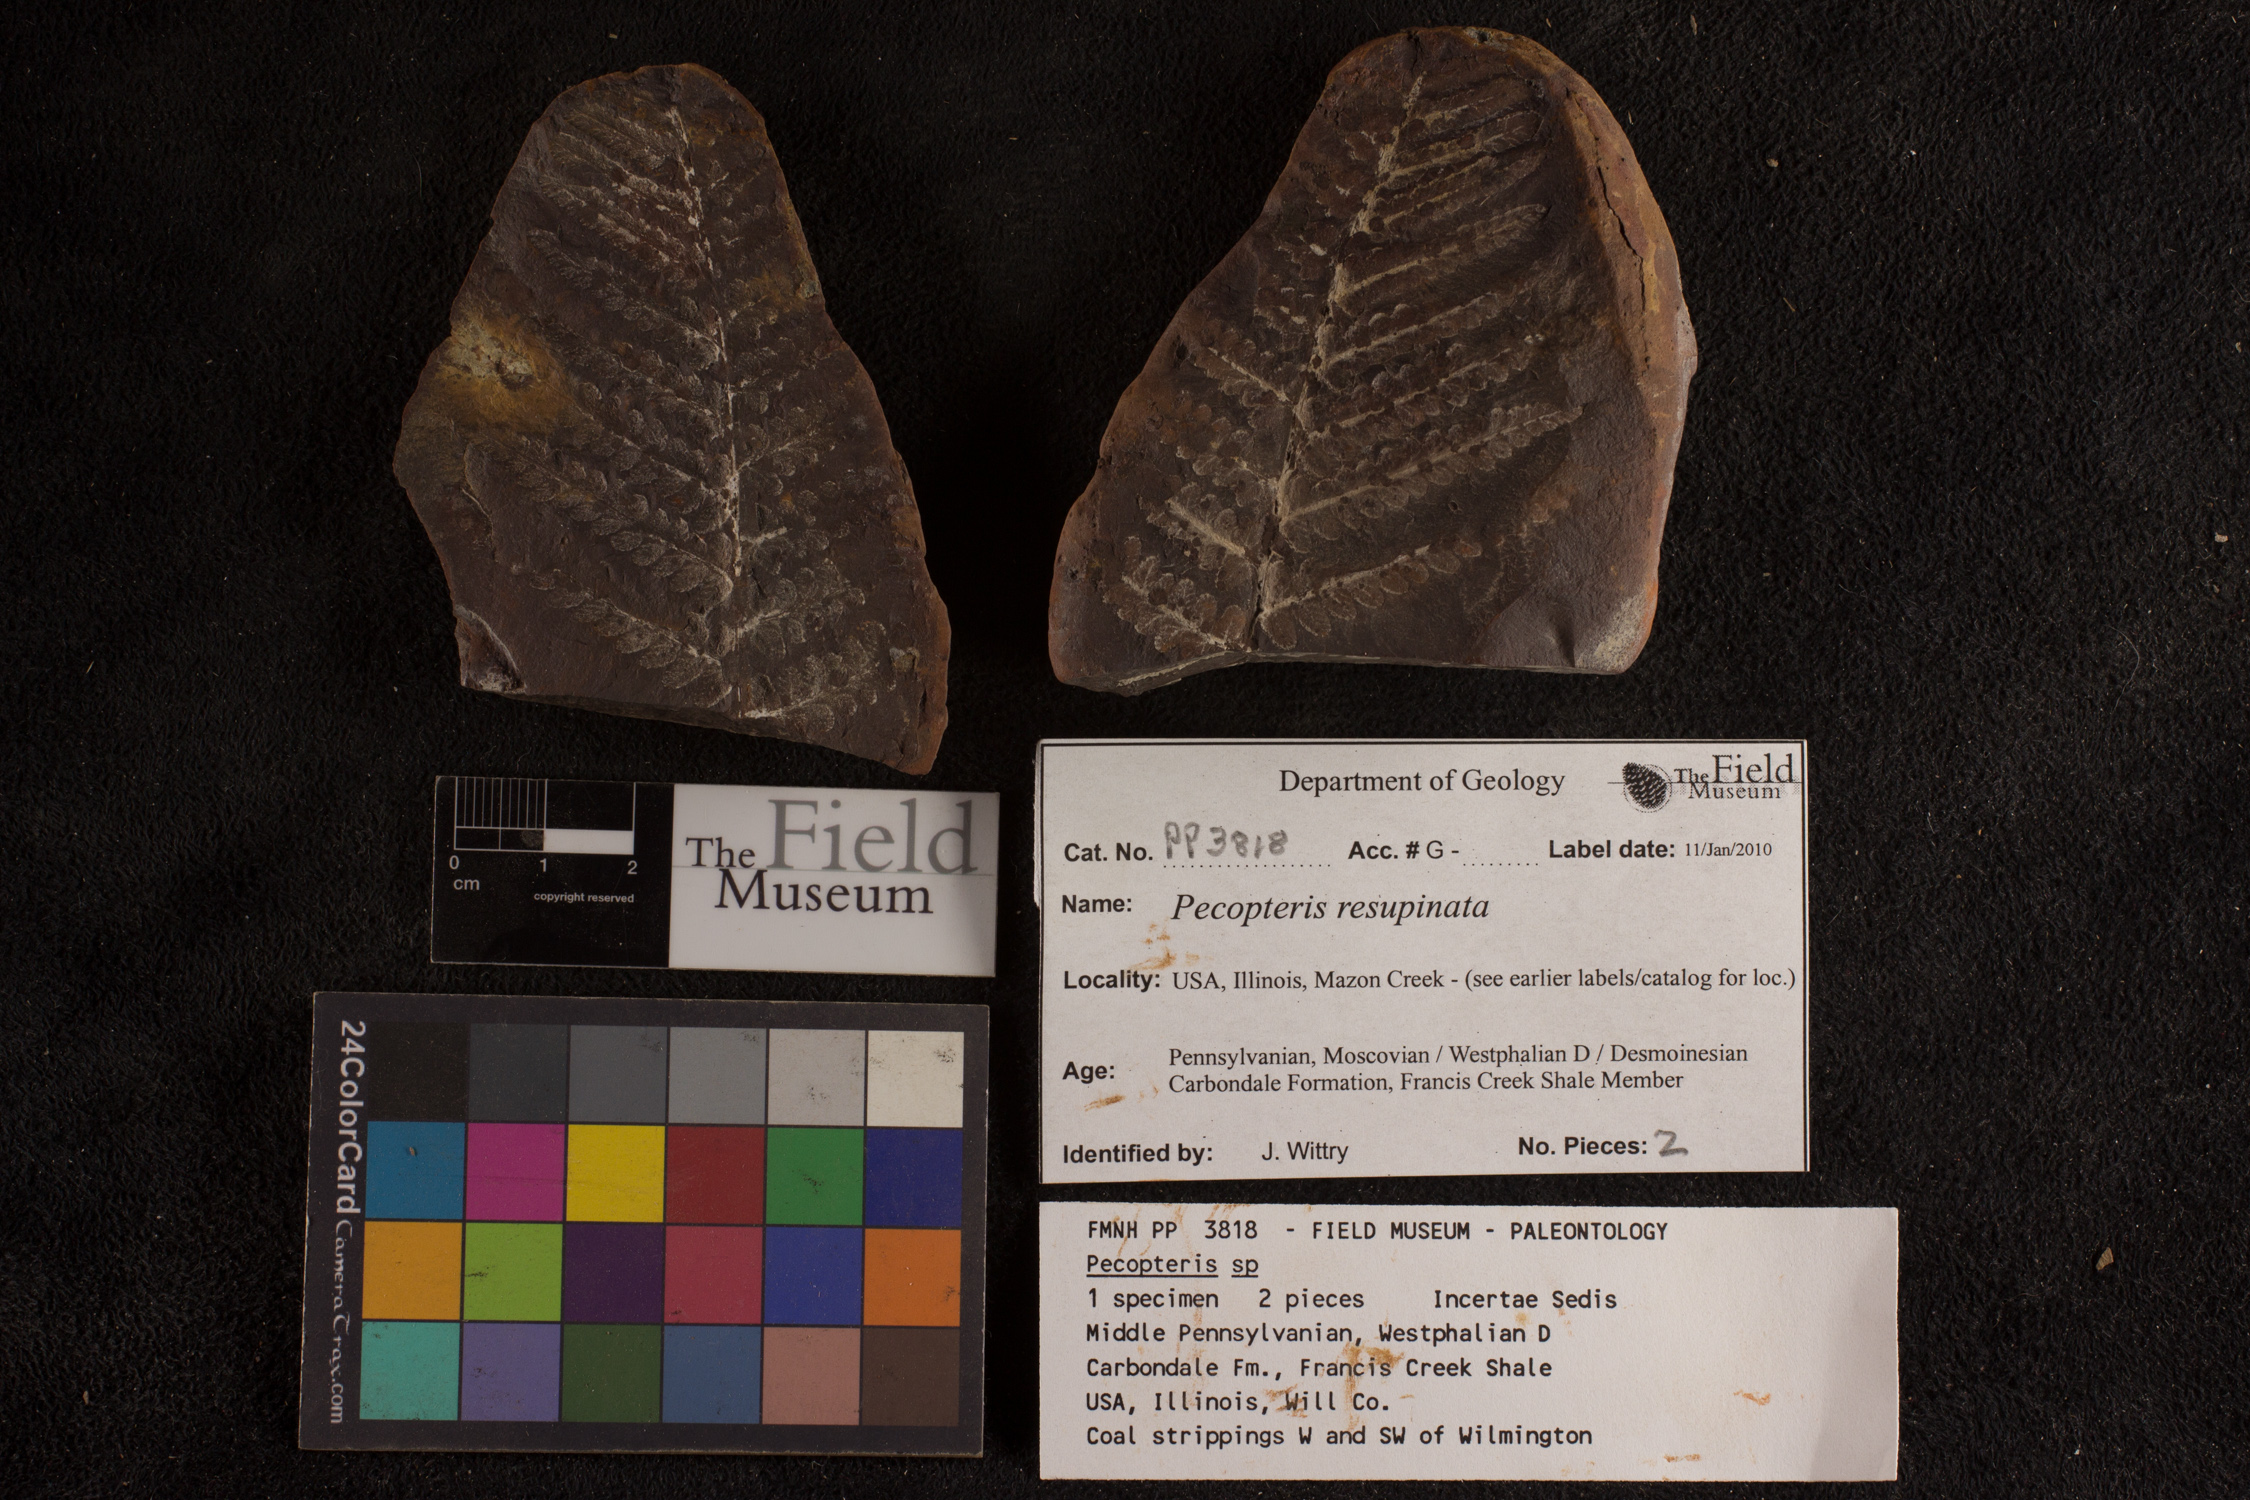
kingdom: Plantae
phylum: Tracheophyta
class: Polypodiopsida
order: Marattiales
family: Asterothecaceae
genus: Pecopteris
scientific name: Pecopteris
